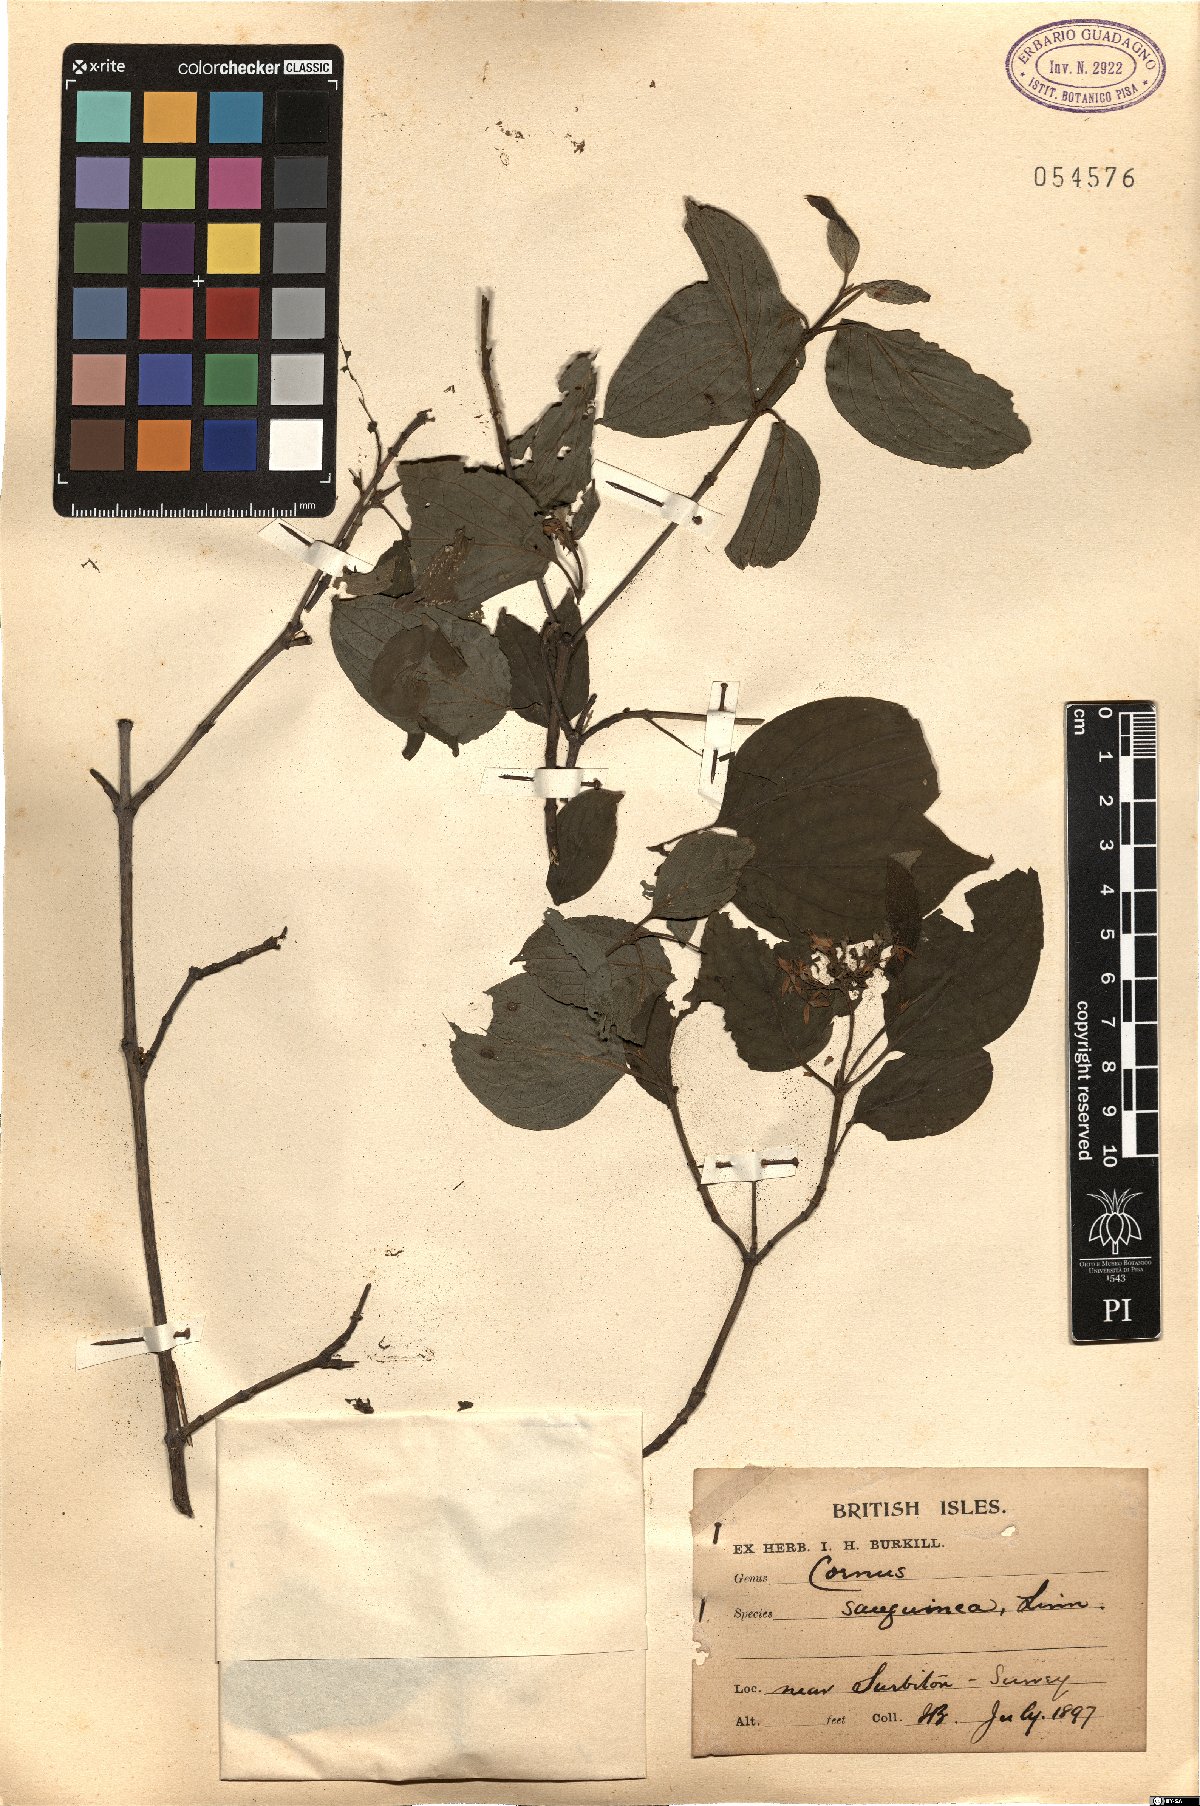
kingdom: Plantae
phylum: Tracheophyta
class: Magnoliopsida
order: Cornales
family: Cornaceae
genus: Cornus
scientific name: Cornus sanguinea
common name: Dogwood
